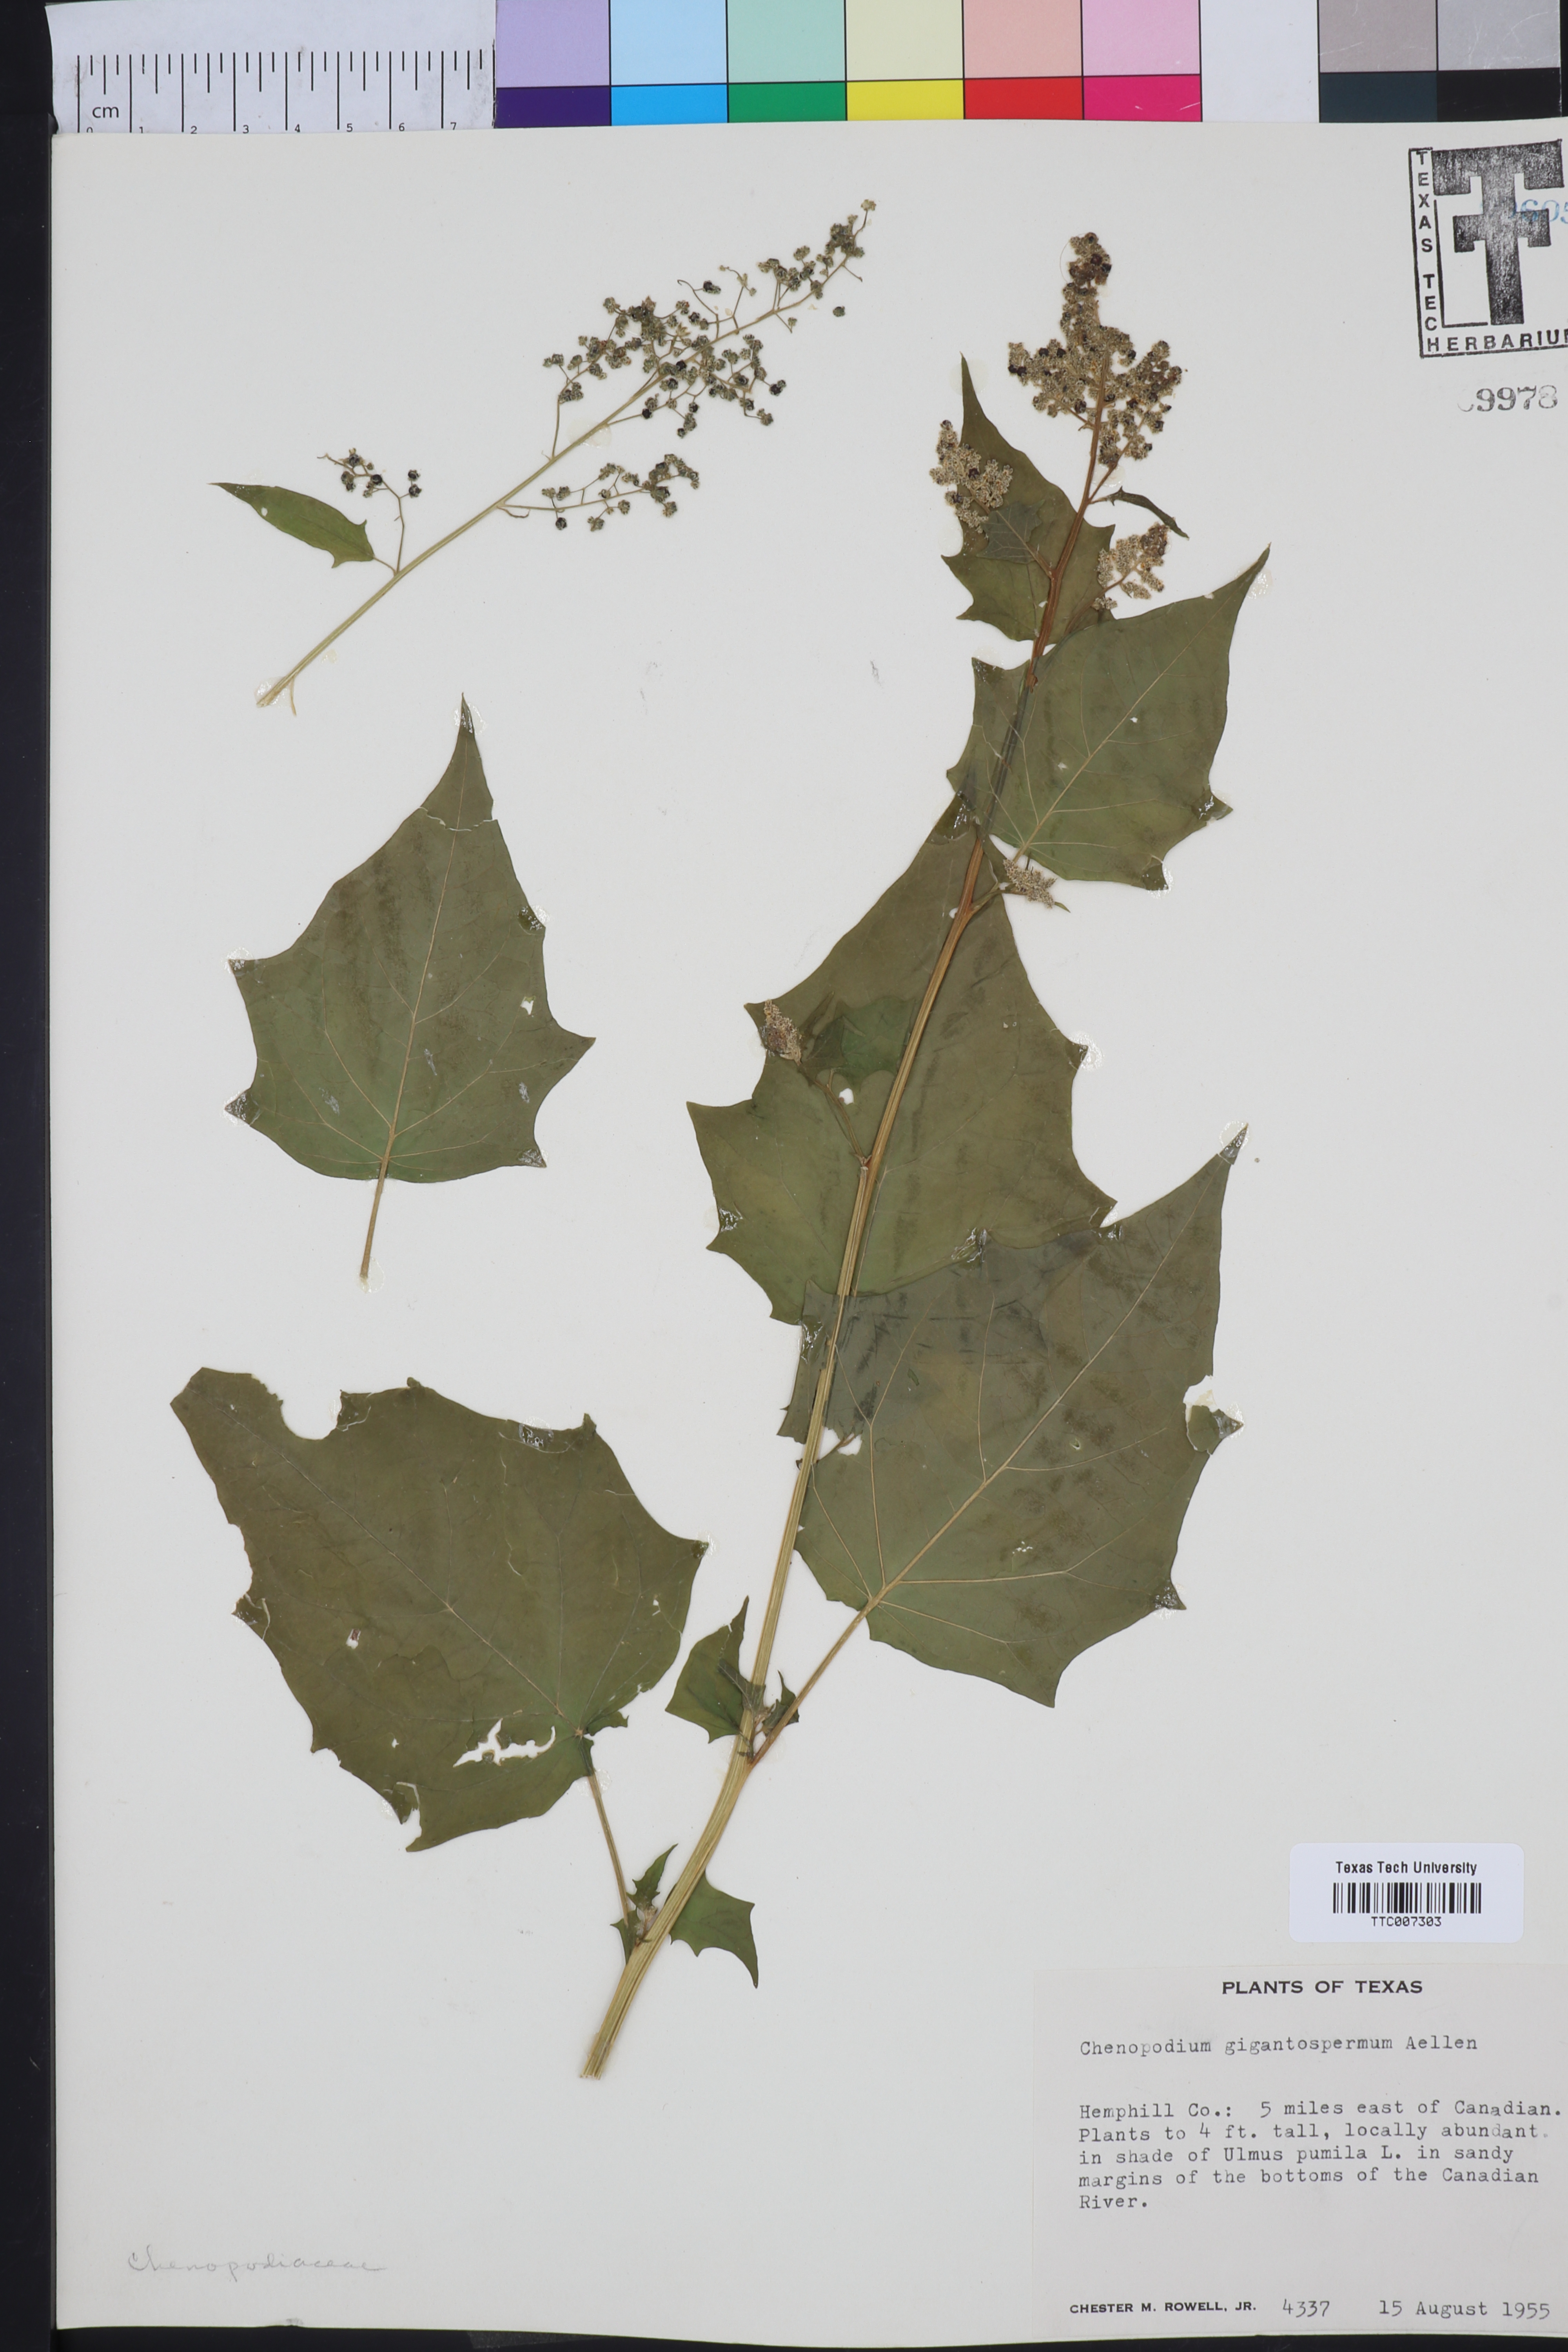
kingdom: Plantae
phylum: Tracheophyta
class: Magnoliopsida
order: Caryophyllales
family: Amaranthaceae
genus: Chenopodiastrum
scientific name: Chenopodiastrum simplex
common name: Large-seed goosefoot
